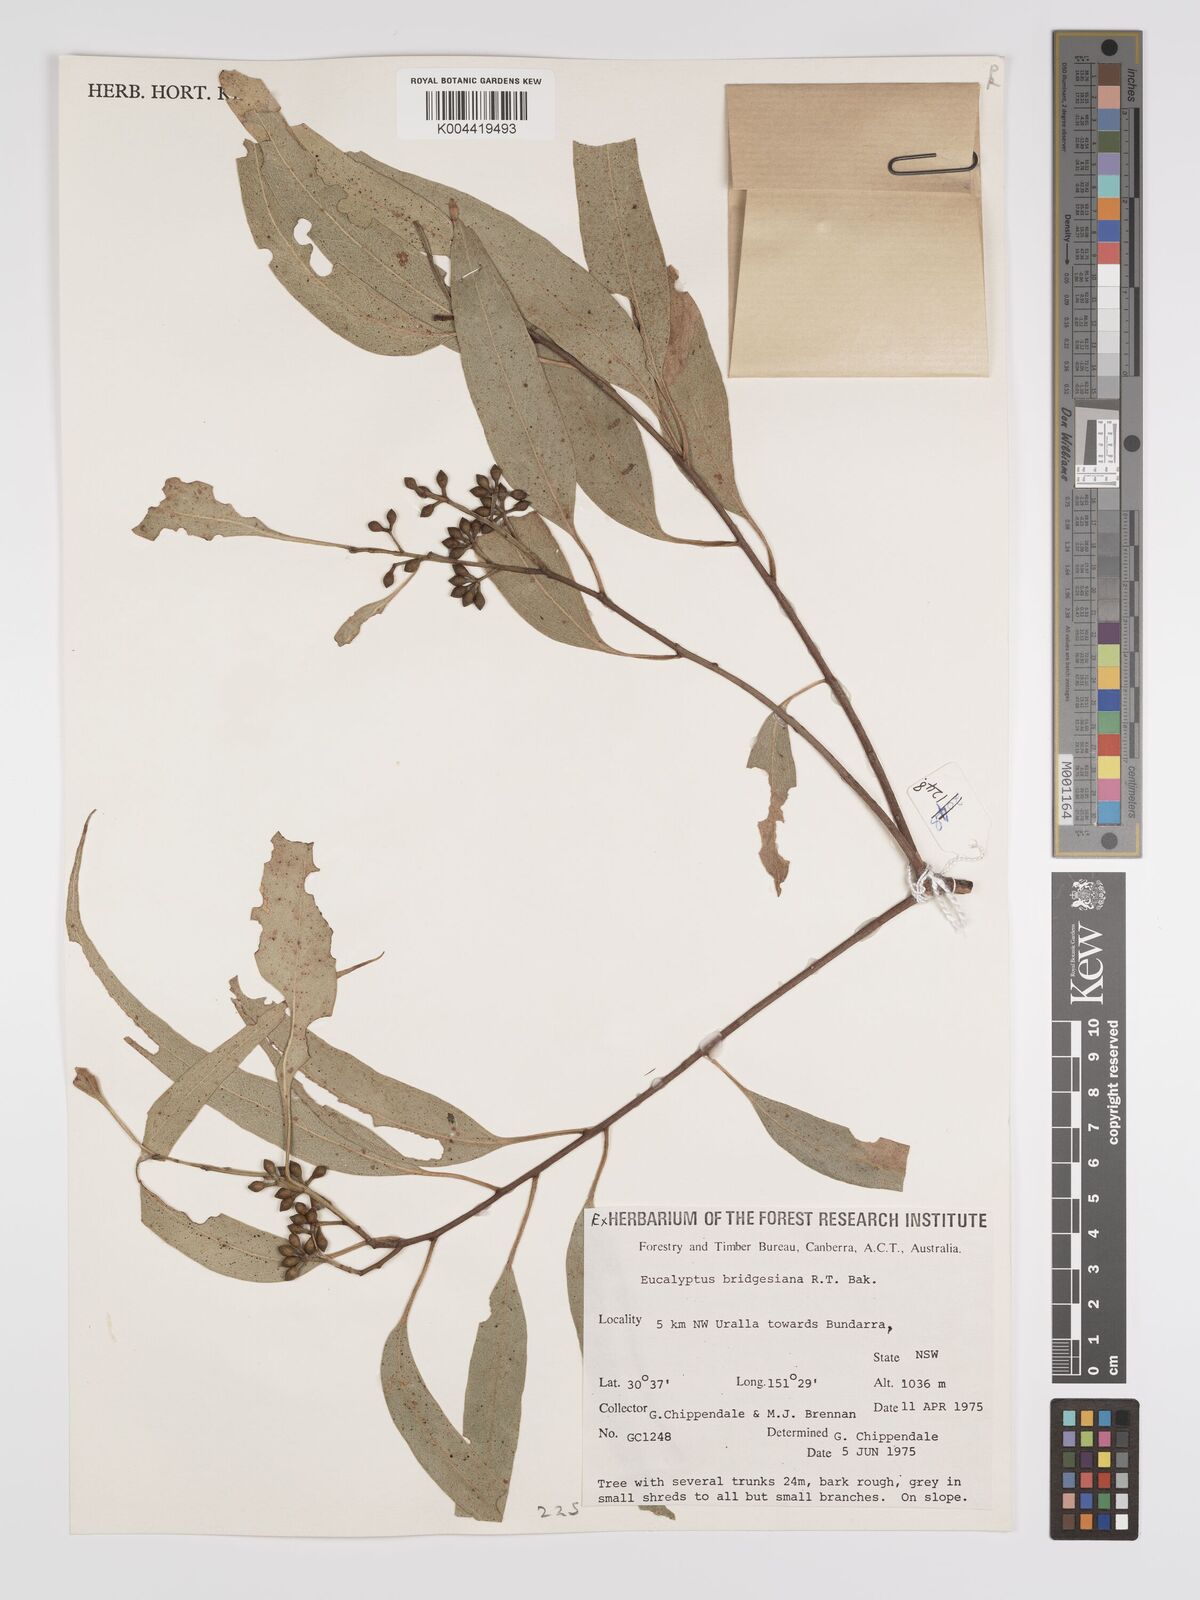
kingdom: Plantae
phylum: Tracheophyta
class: Magnoliopsida
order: Myrtales
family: Myrtaceae
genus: Eucalyptus
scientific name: Eucalyptus bridgesiana
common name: Applebox
